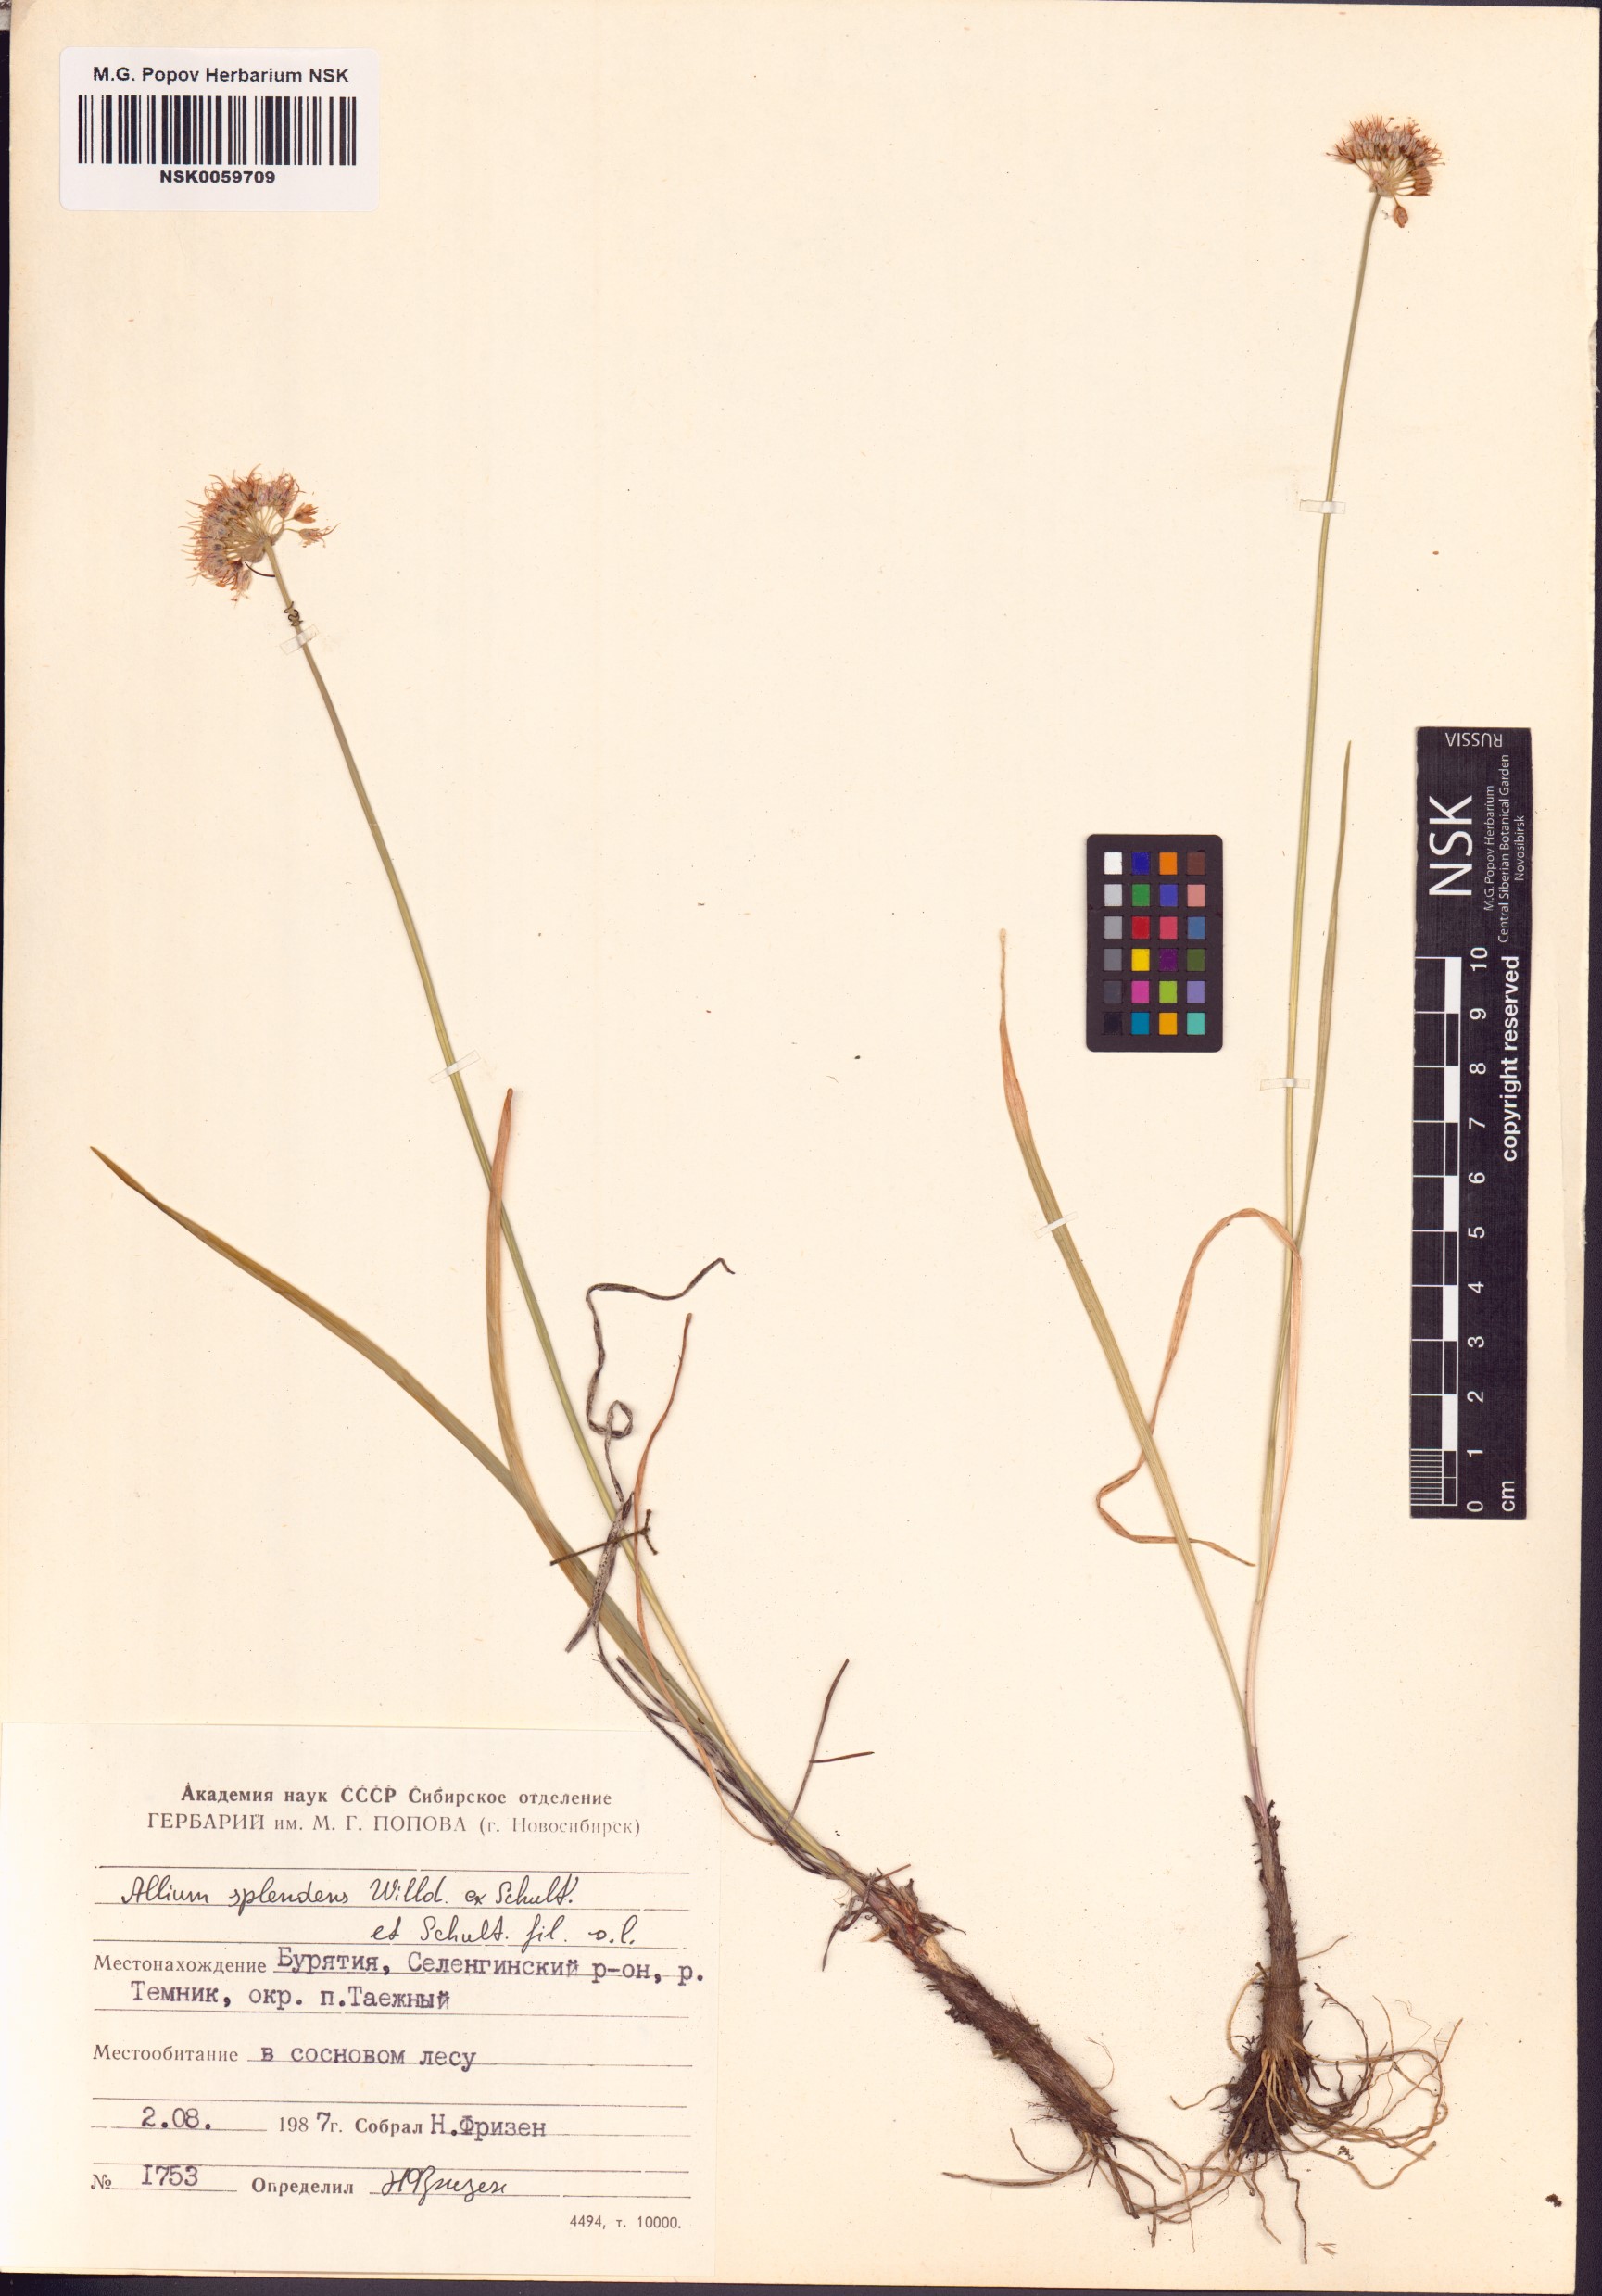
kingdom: Plantae
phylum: Tracheophyta
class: Liliopsida
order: Asparagales
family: Amaryllidaceae
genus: Allium
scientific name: Allium splendens
